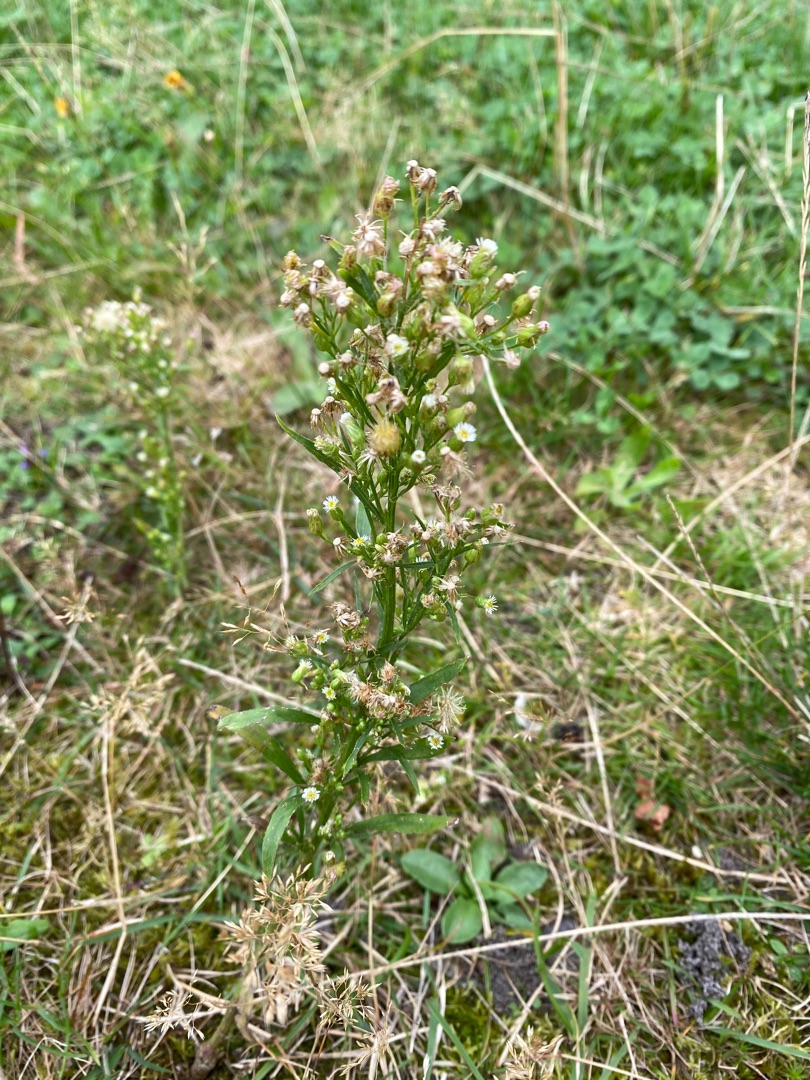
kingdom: Plantae
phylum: Tracheophyta
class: Magnoliopsida
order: Asterales
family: Asteraceae
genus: Erigeron
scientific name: Erigeron canadensis
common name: Kanadisk bakkestjerne
